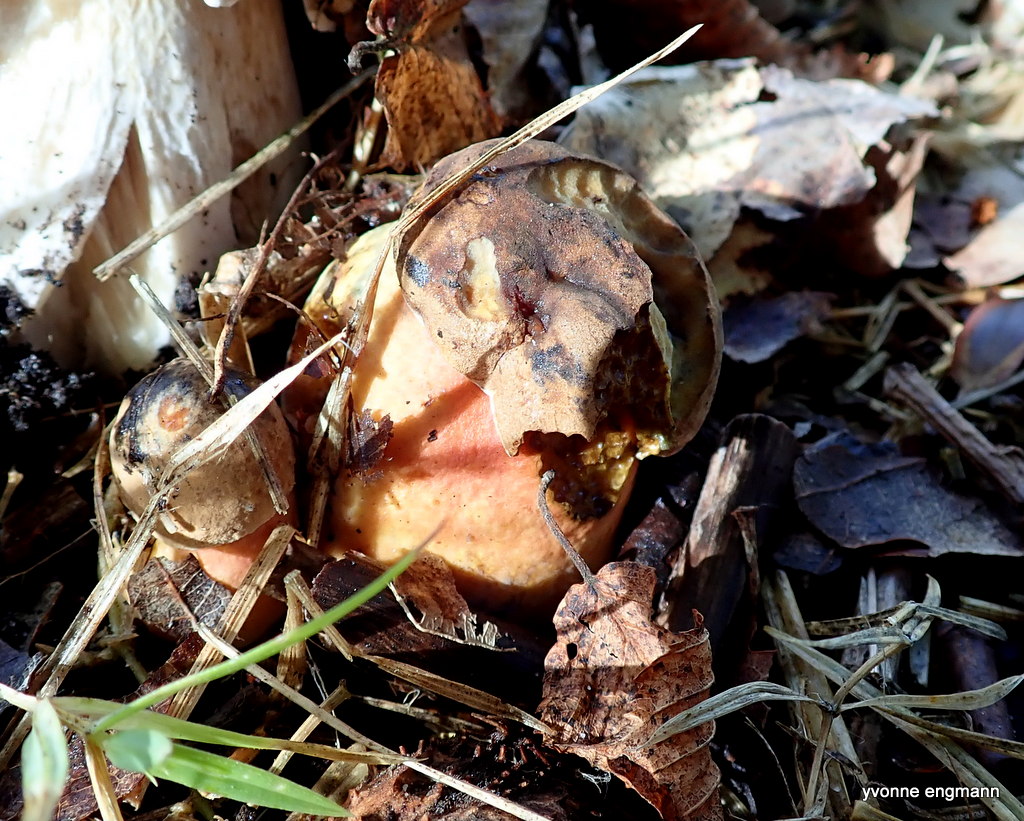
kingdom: Fungi
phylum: Basidiomycota
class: Agaricomycetes
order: Boletales
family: Boletaceae
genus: Neoboletus
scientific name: Neoboletus erythropus
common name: punktstokket indigorørhat
